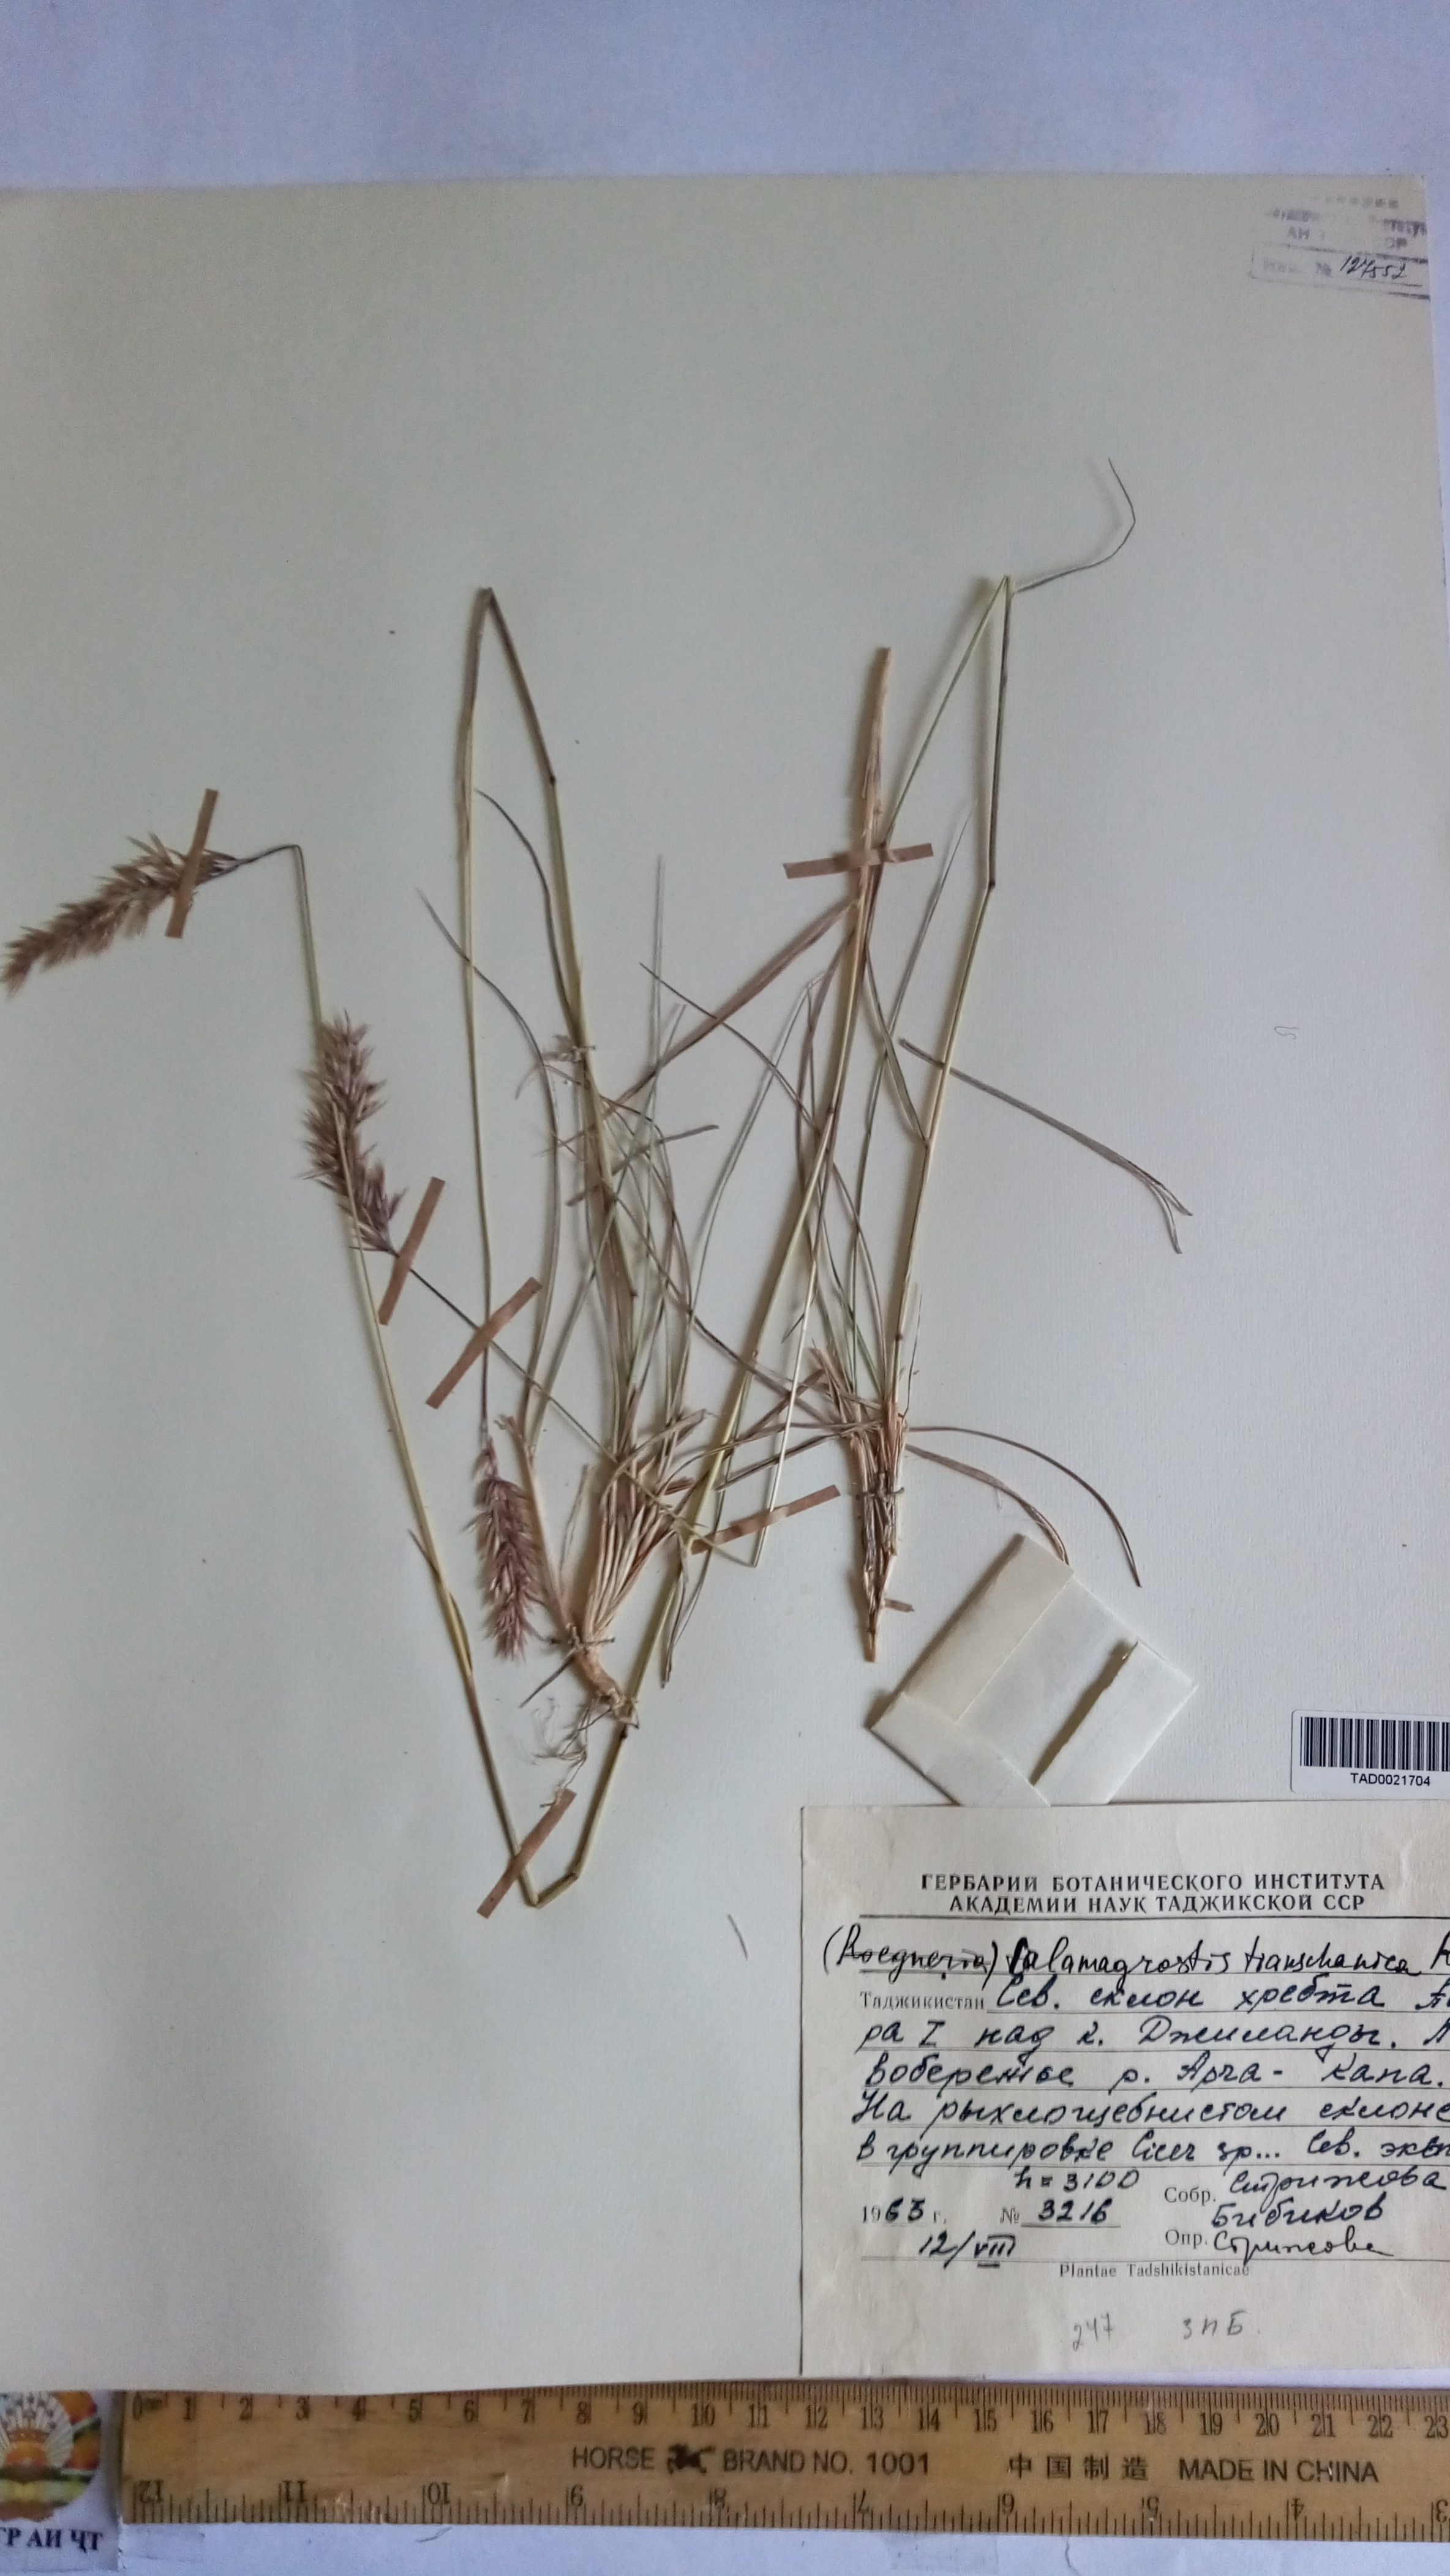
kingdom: Plantae
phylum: Tracheophyta
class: Liliopsida
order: Poales
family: Poaceae
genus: Calamagrostis
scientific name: Calamagrostis tianschanica
